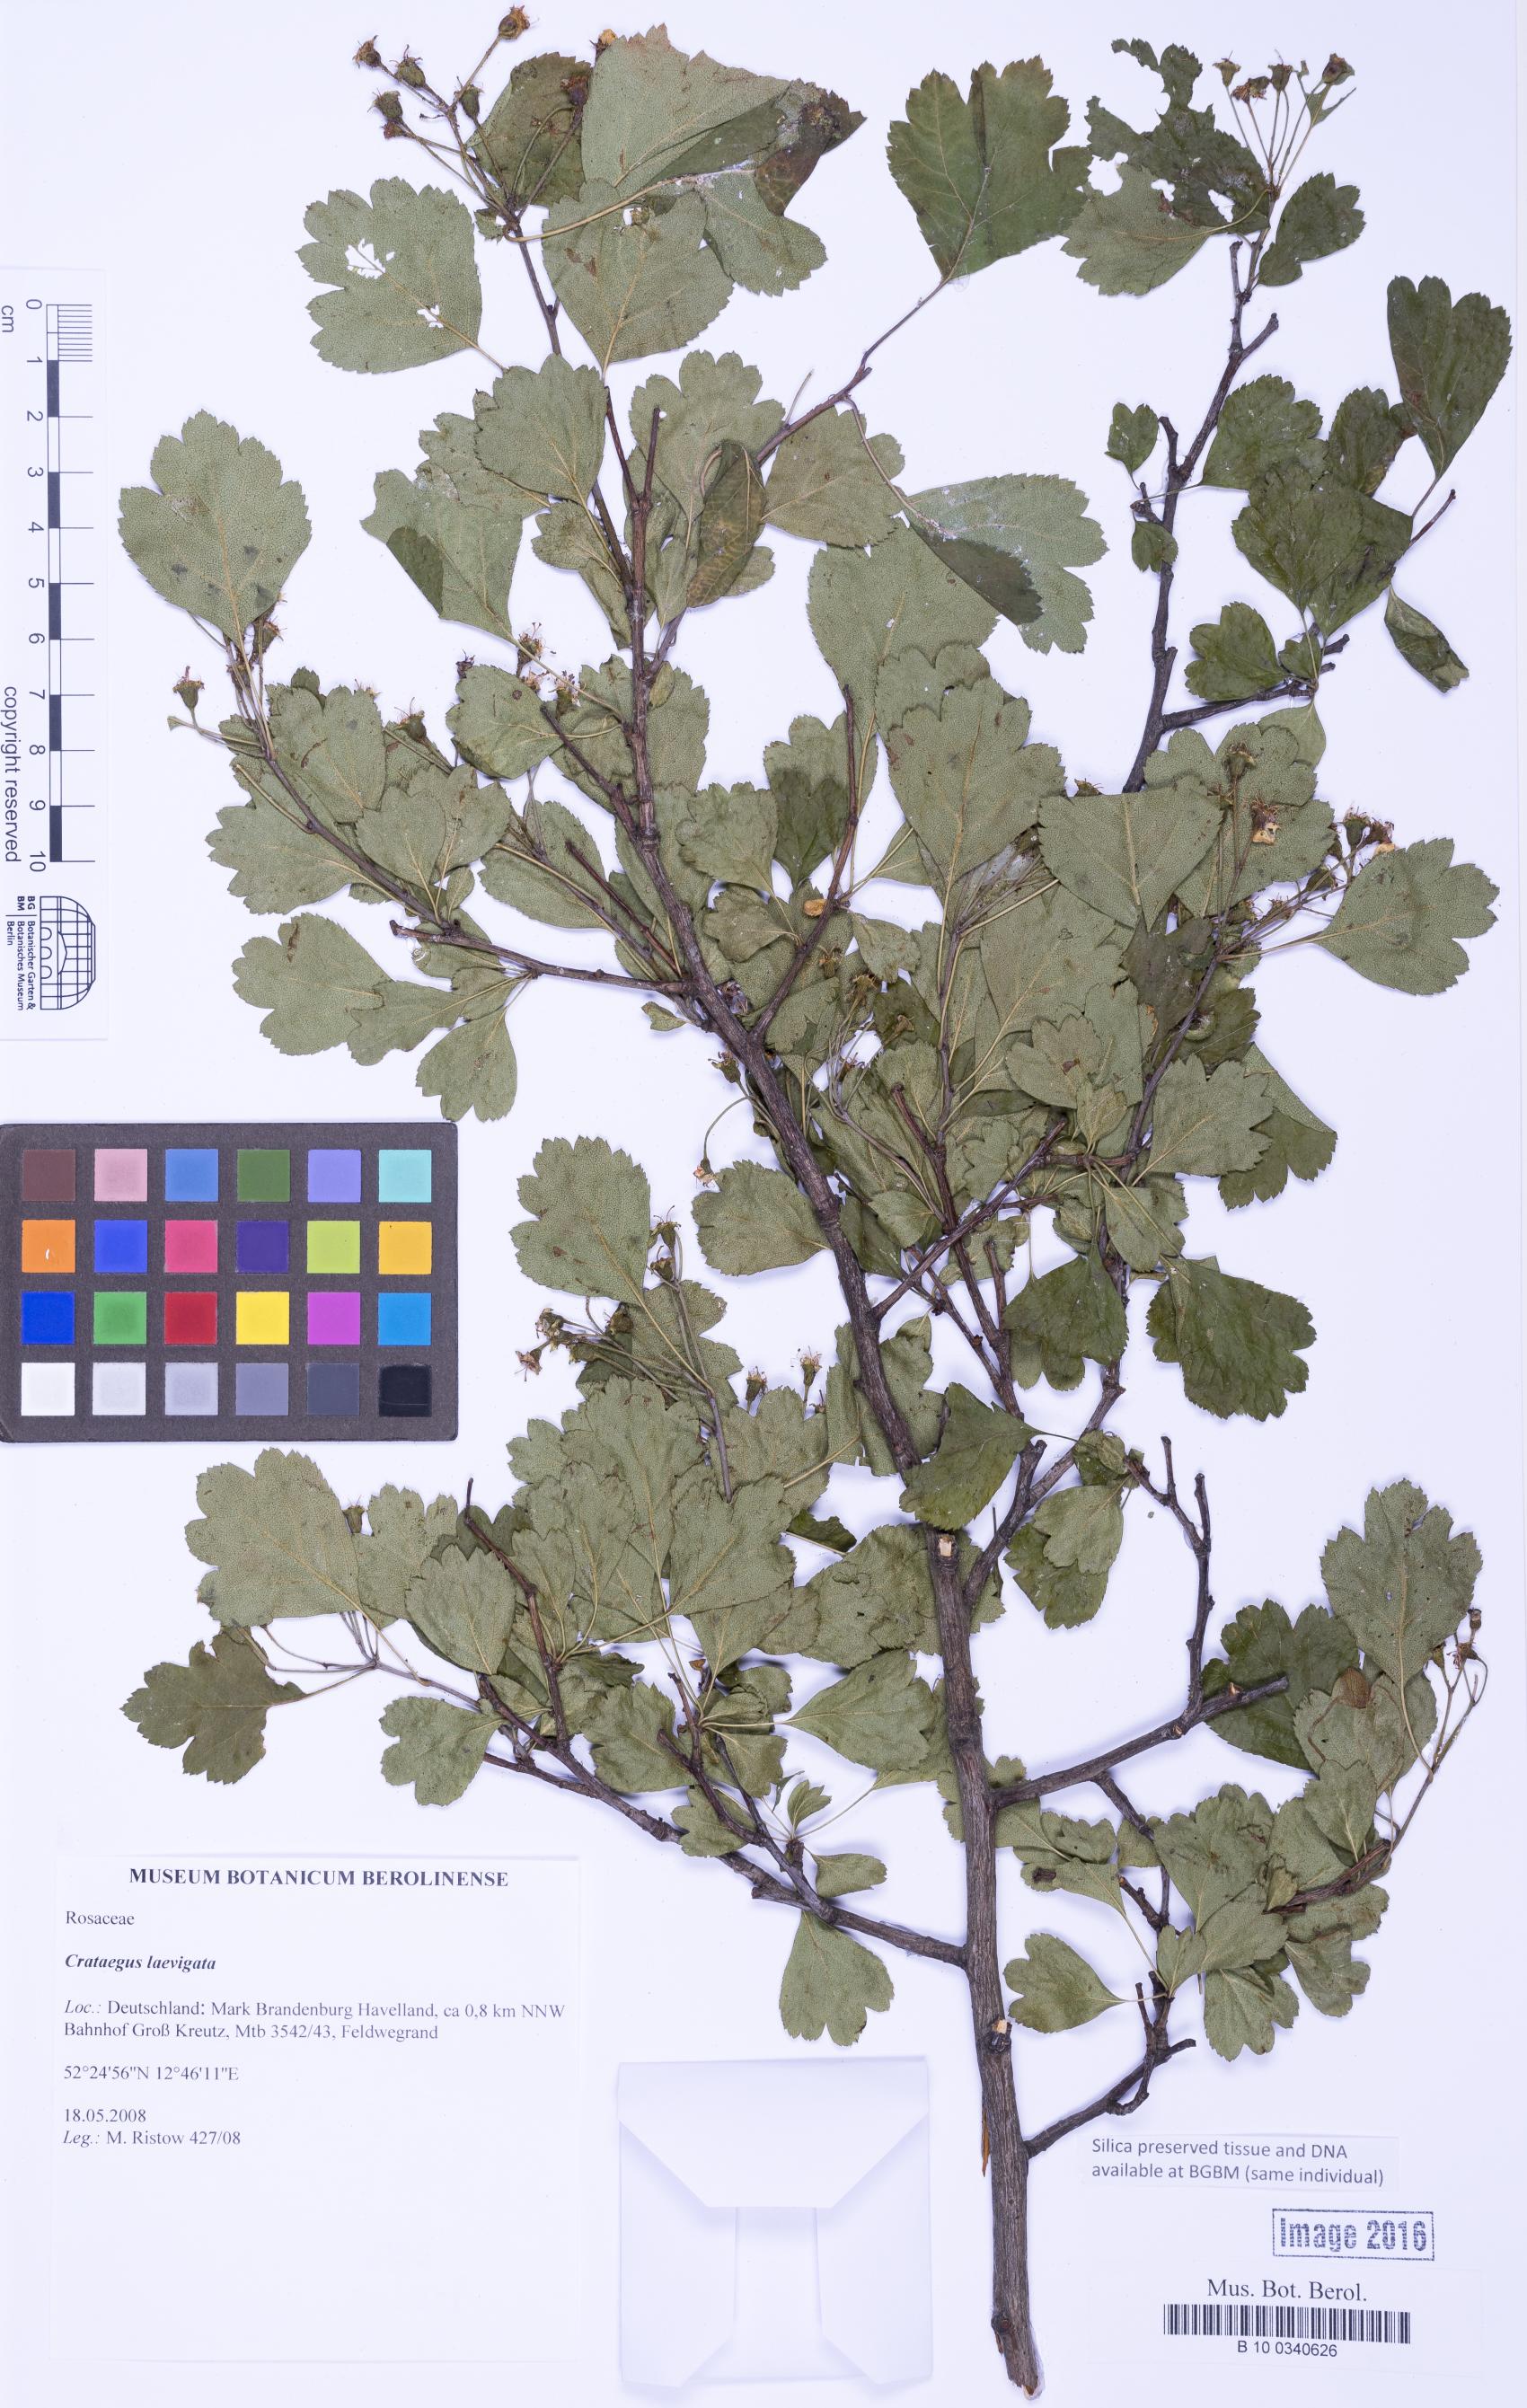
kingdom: Plantae
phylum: Tracheophyta
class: Magnoliopsida
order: Rosales
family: Rosaceae
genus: Crataegus
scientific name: Crataegus laevigata
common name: Midland hawthorn
